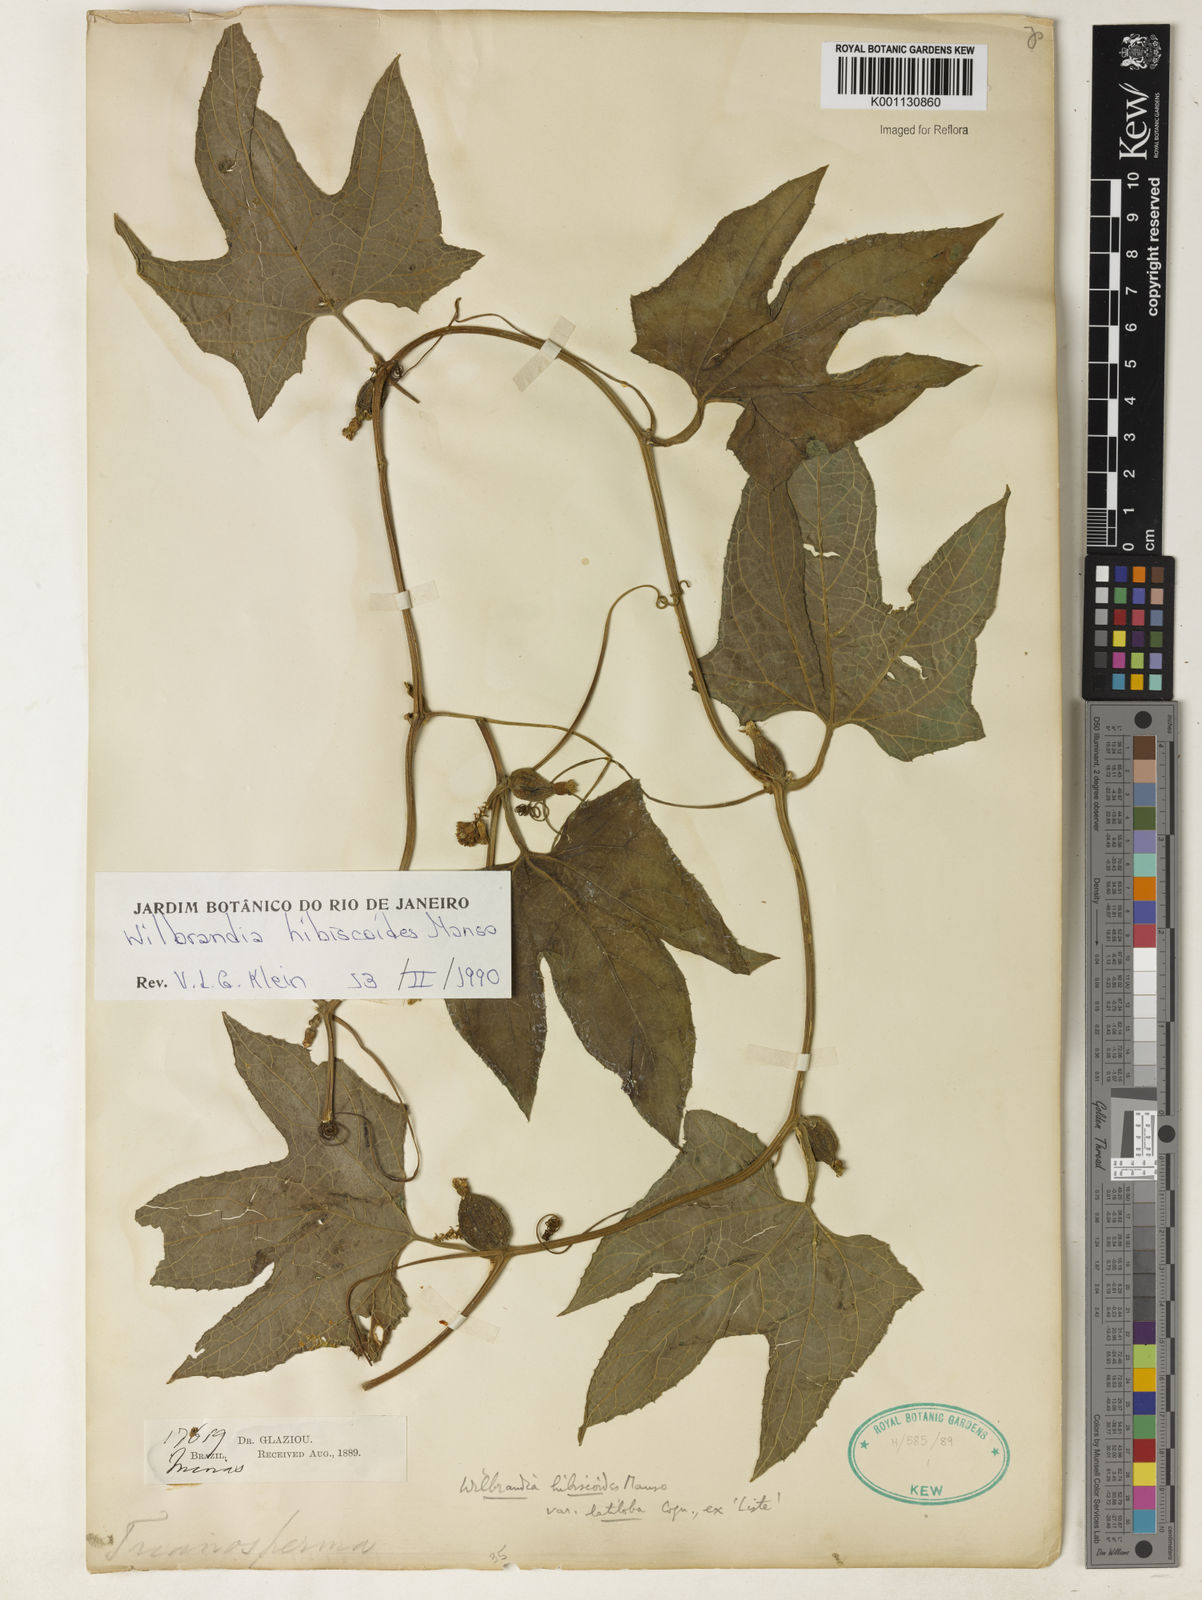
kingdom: Plantae
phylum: Tracheophyta
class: Magnoliopsida
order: Cucurbitales
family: Cucurbitaceae
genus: Wilbrandia
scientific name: Wilbrandia hibiscoides
